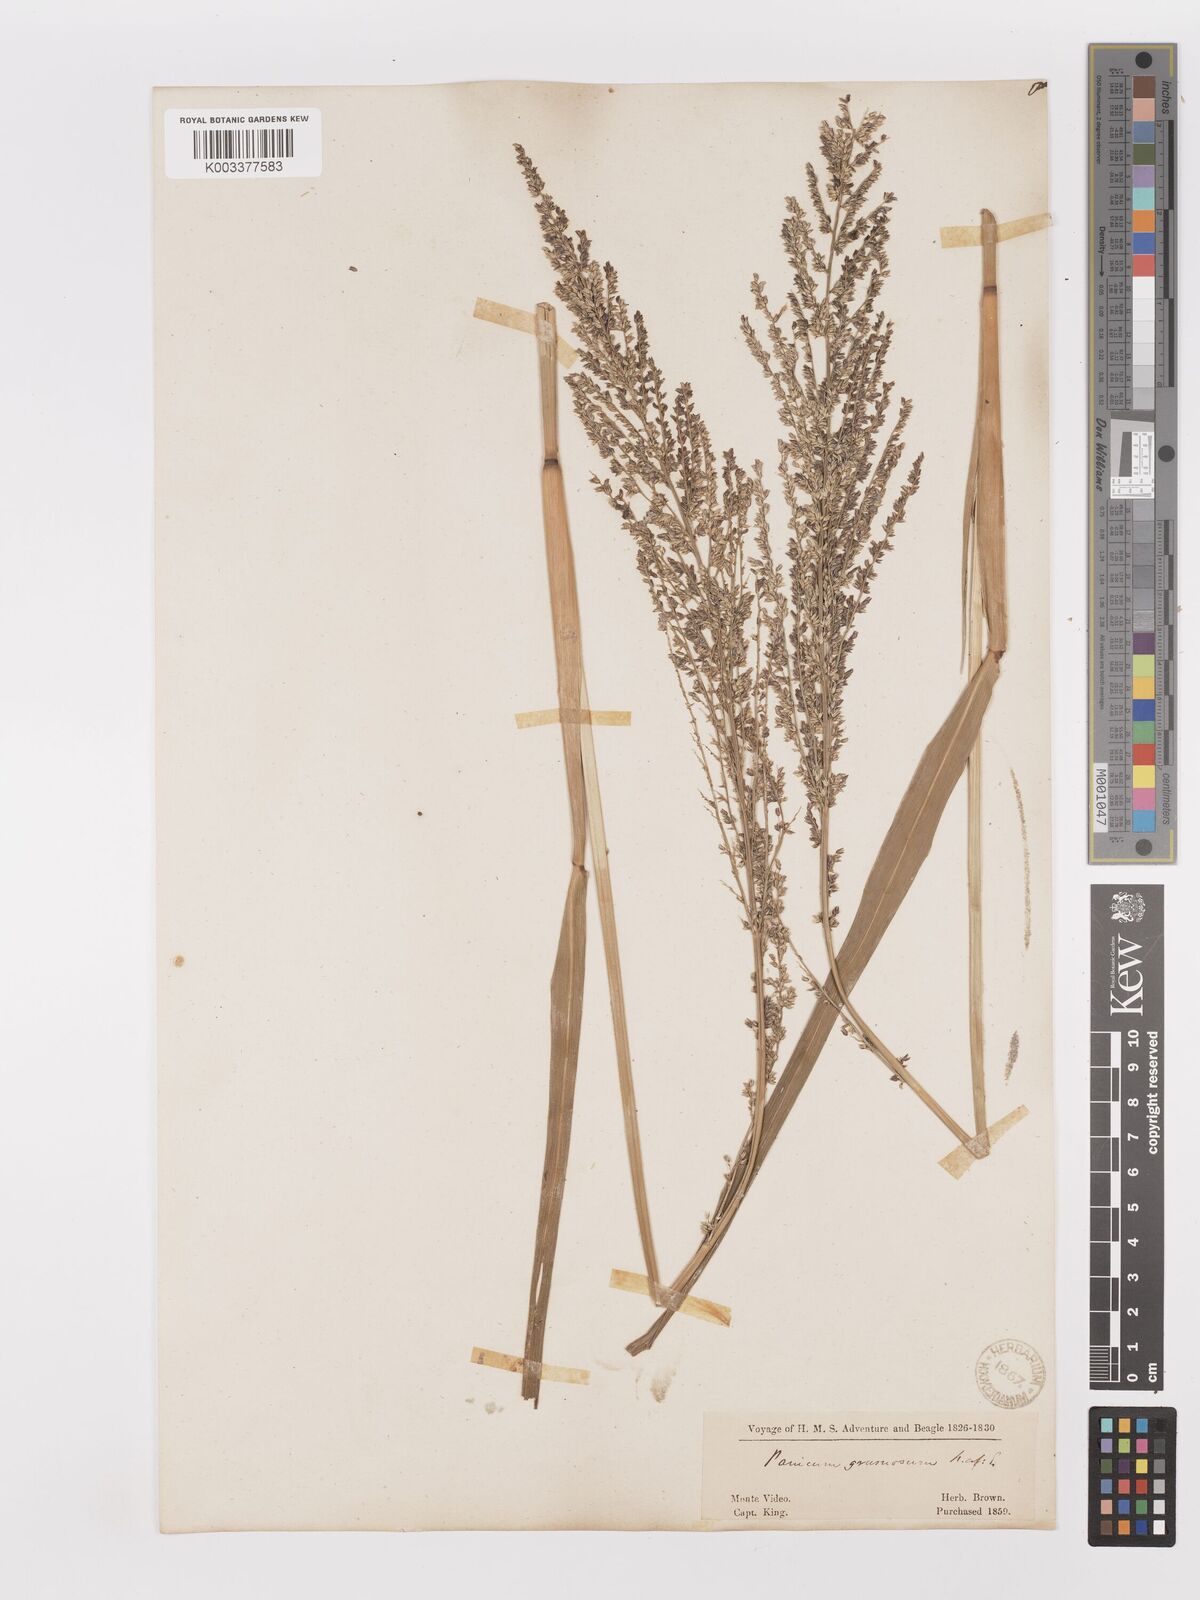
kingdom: Plantae
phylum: Tracheophyta
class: Liliopsida
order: Poales
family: Poaceae
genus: Urochloa
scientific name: Urochloa reptans
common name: Sprawling signalgrass
